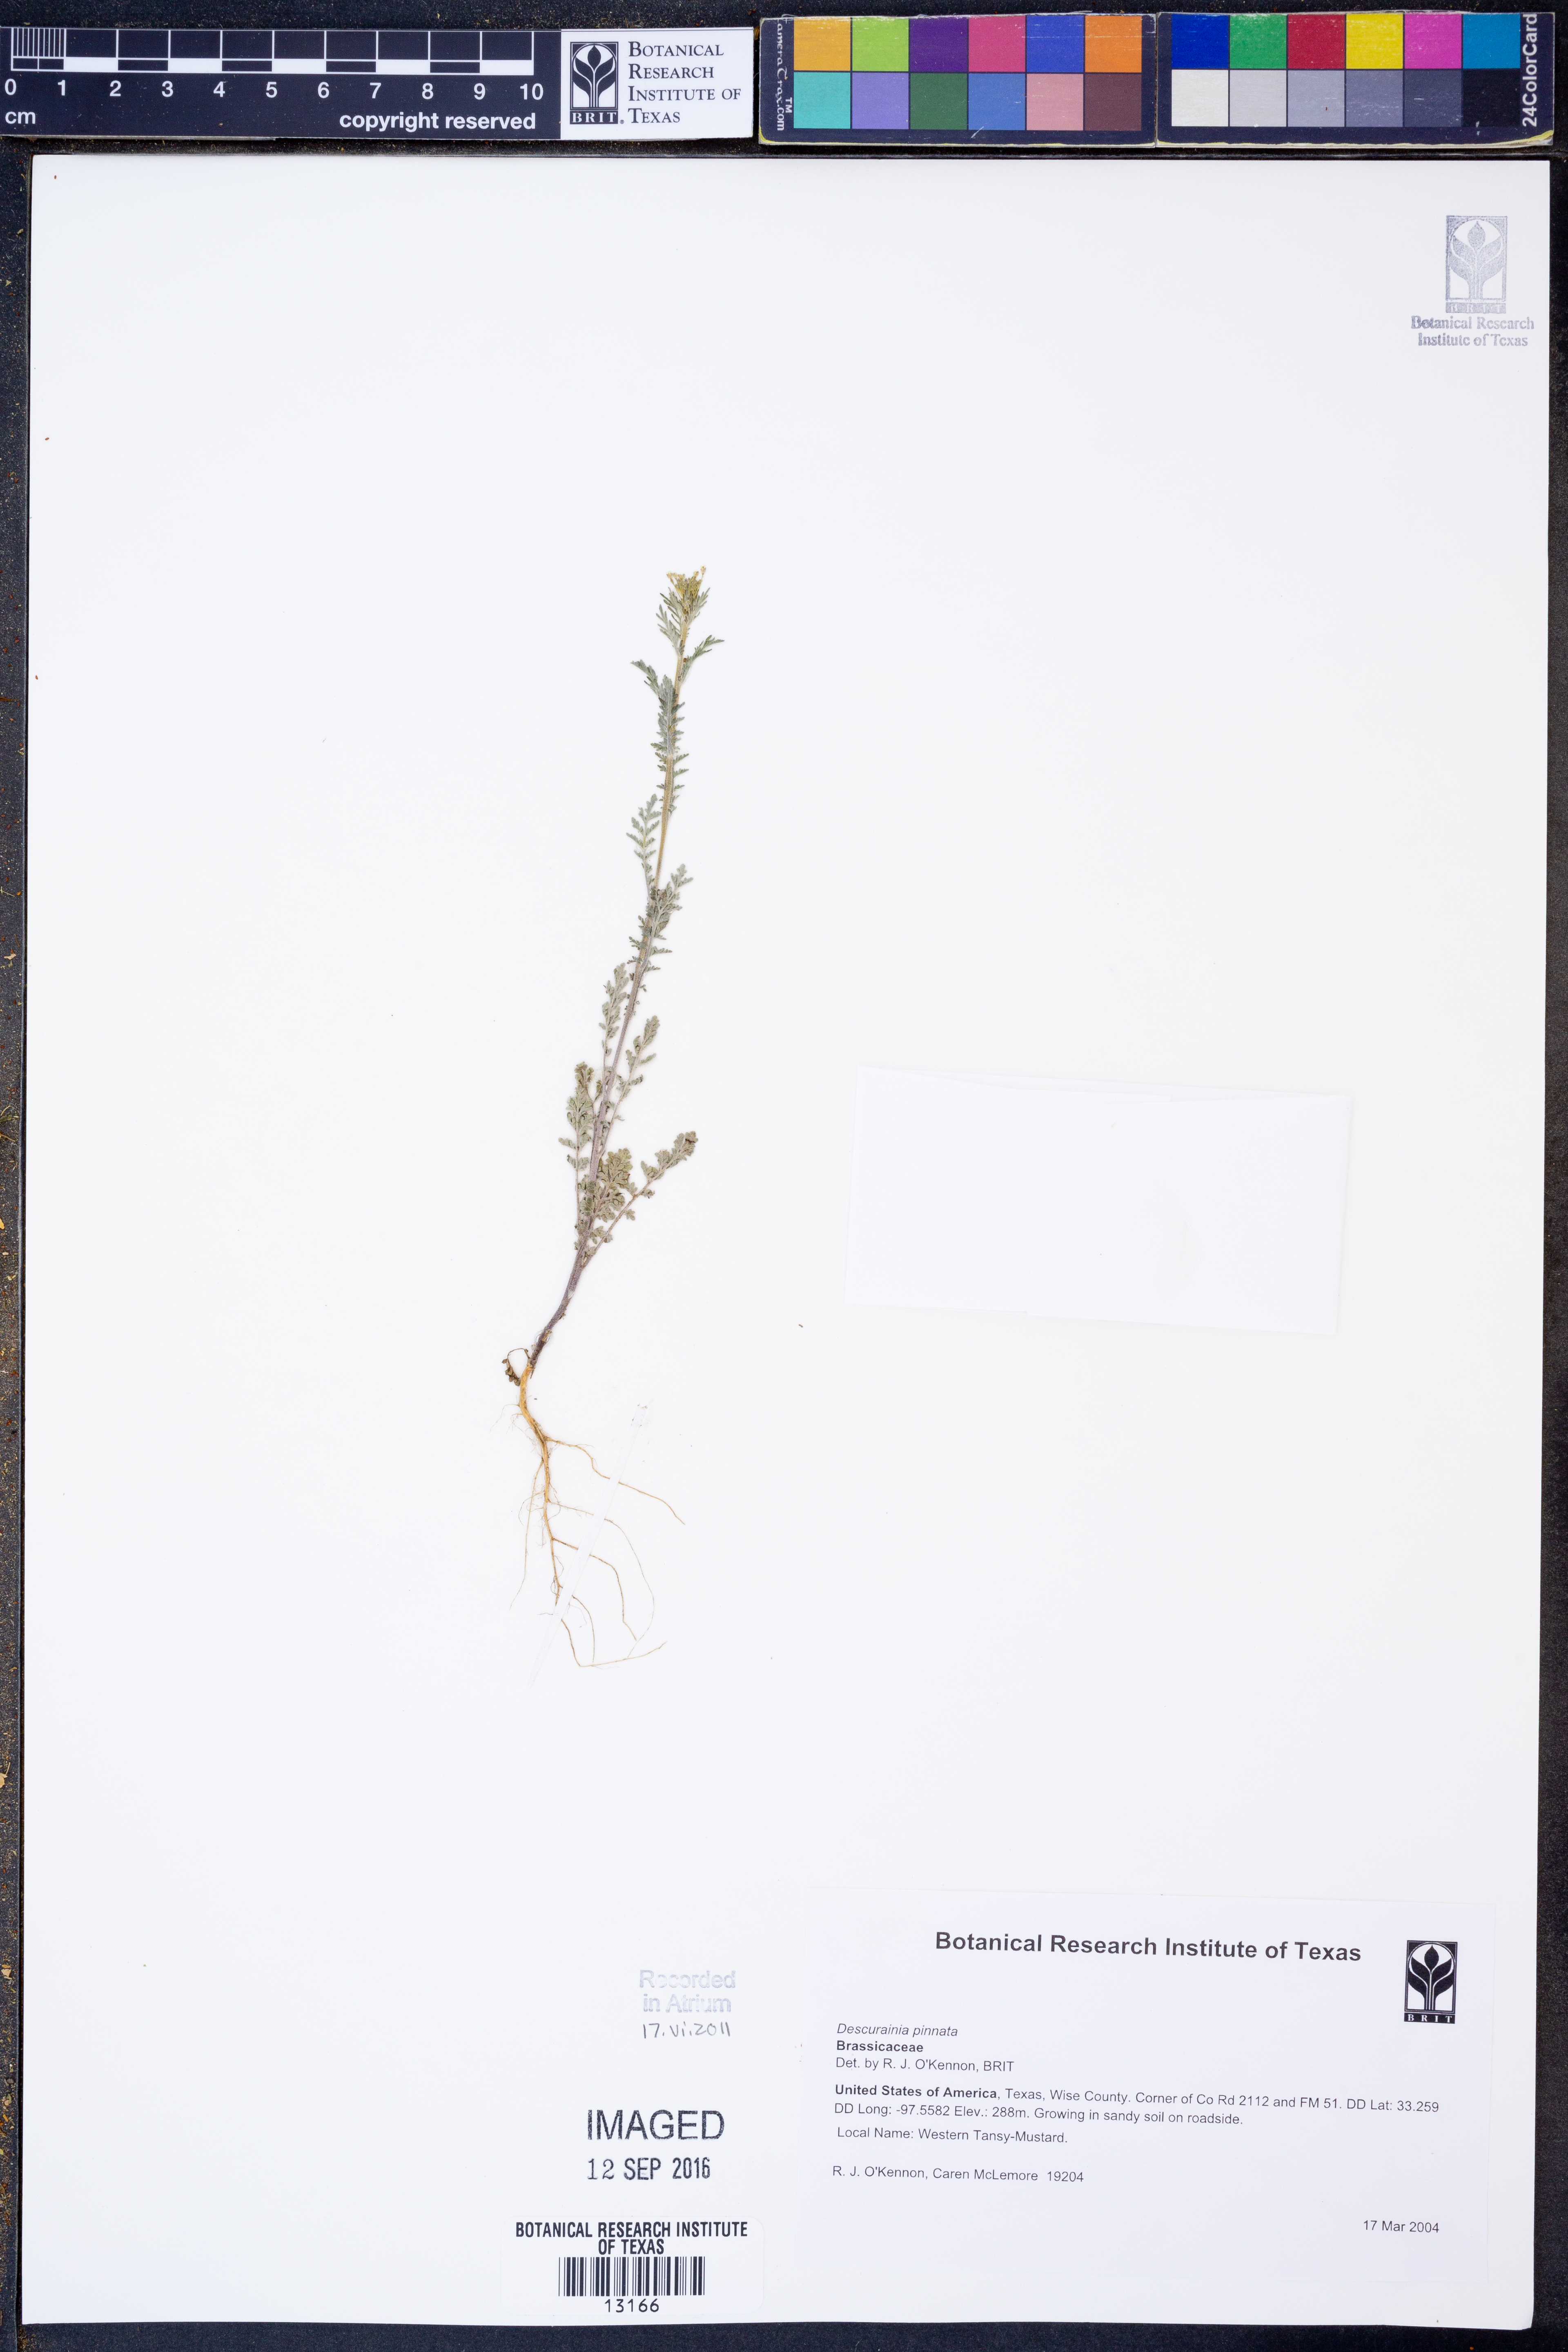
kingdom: Plantae
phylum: Tracheophyta
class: Magnoliopsida
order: Brassicales
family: Brassicaceae
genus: Descurainia
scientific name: Descurainia pinnata
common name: Western tansy mustard
